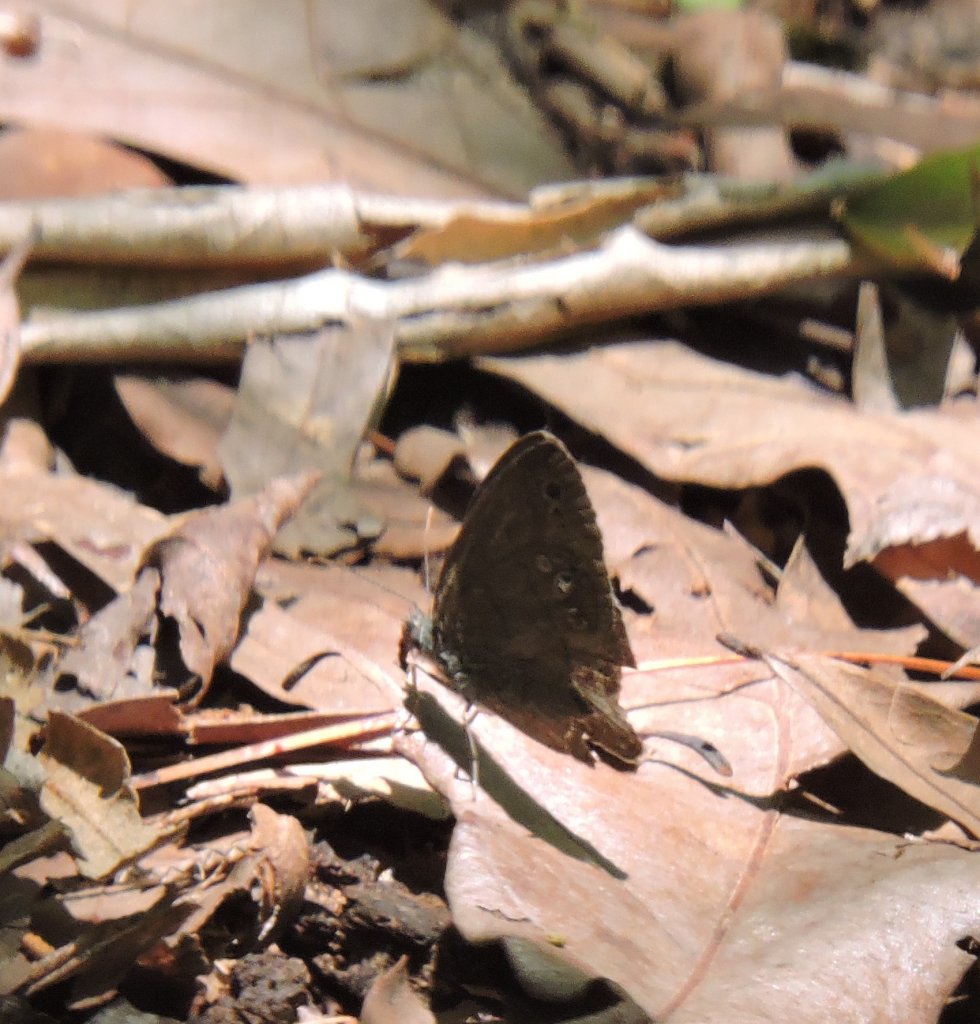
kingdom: Animalia
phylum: Arthropoda
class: Insecta
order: Lepidoptera
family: Nymphalidae
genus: Hermeuptychia
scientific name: Hermeuptychia hermes
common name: Carolina Satyr
